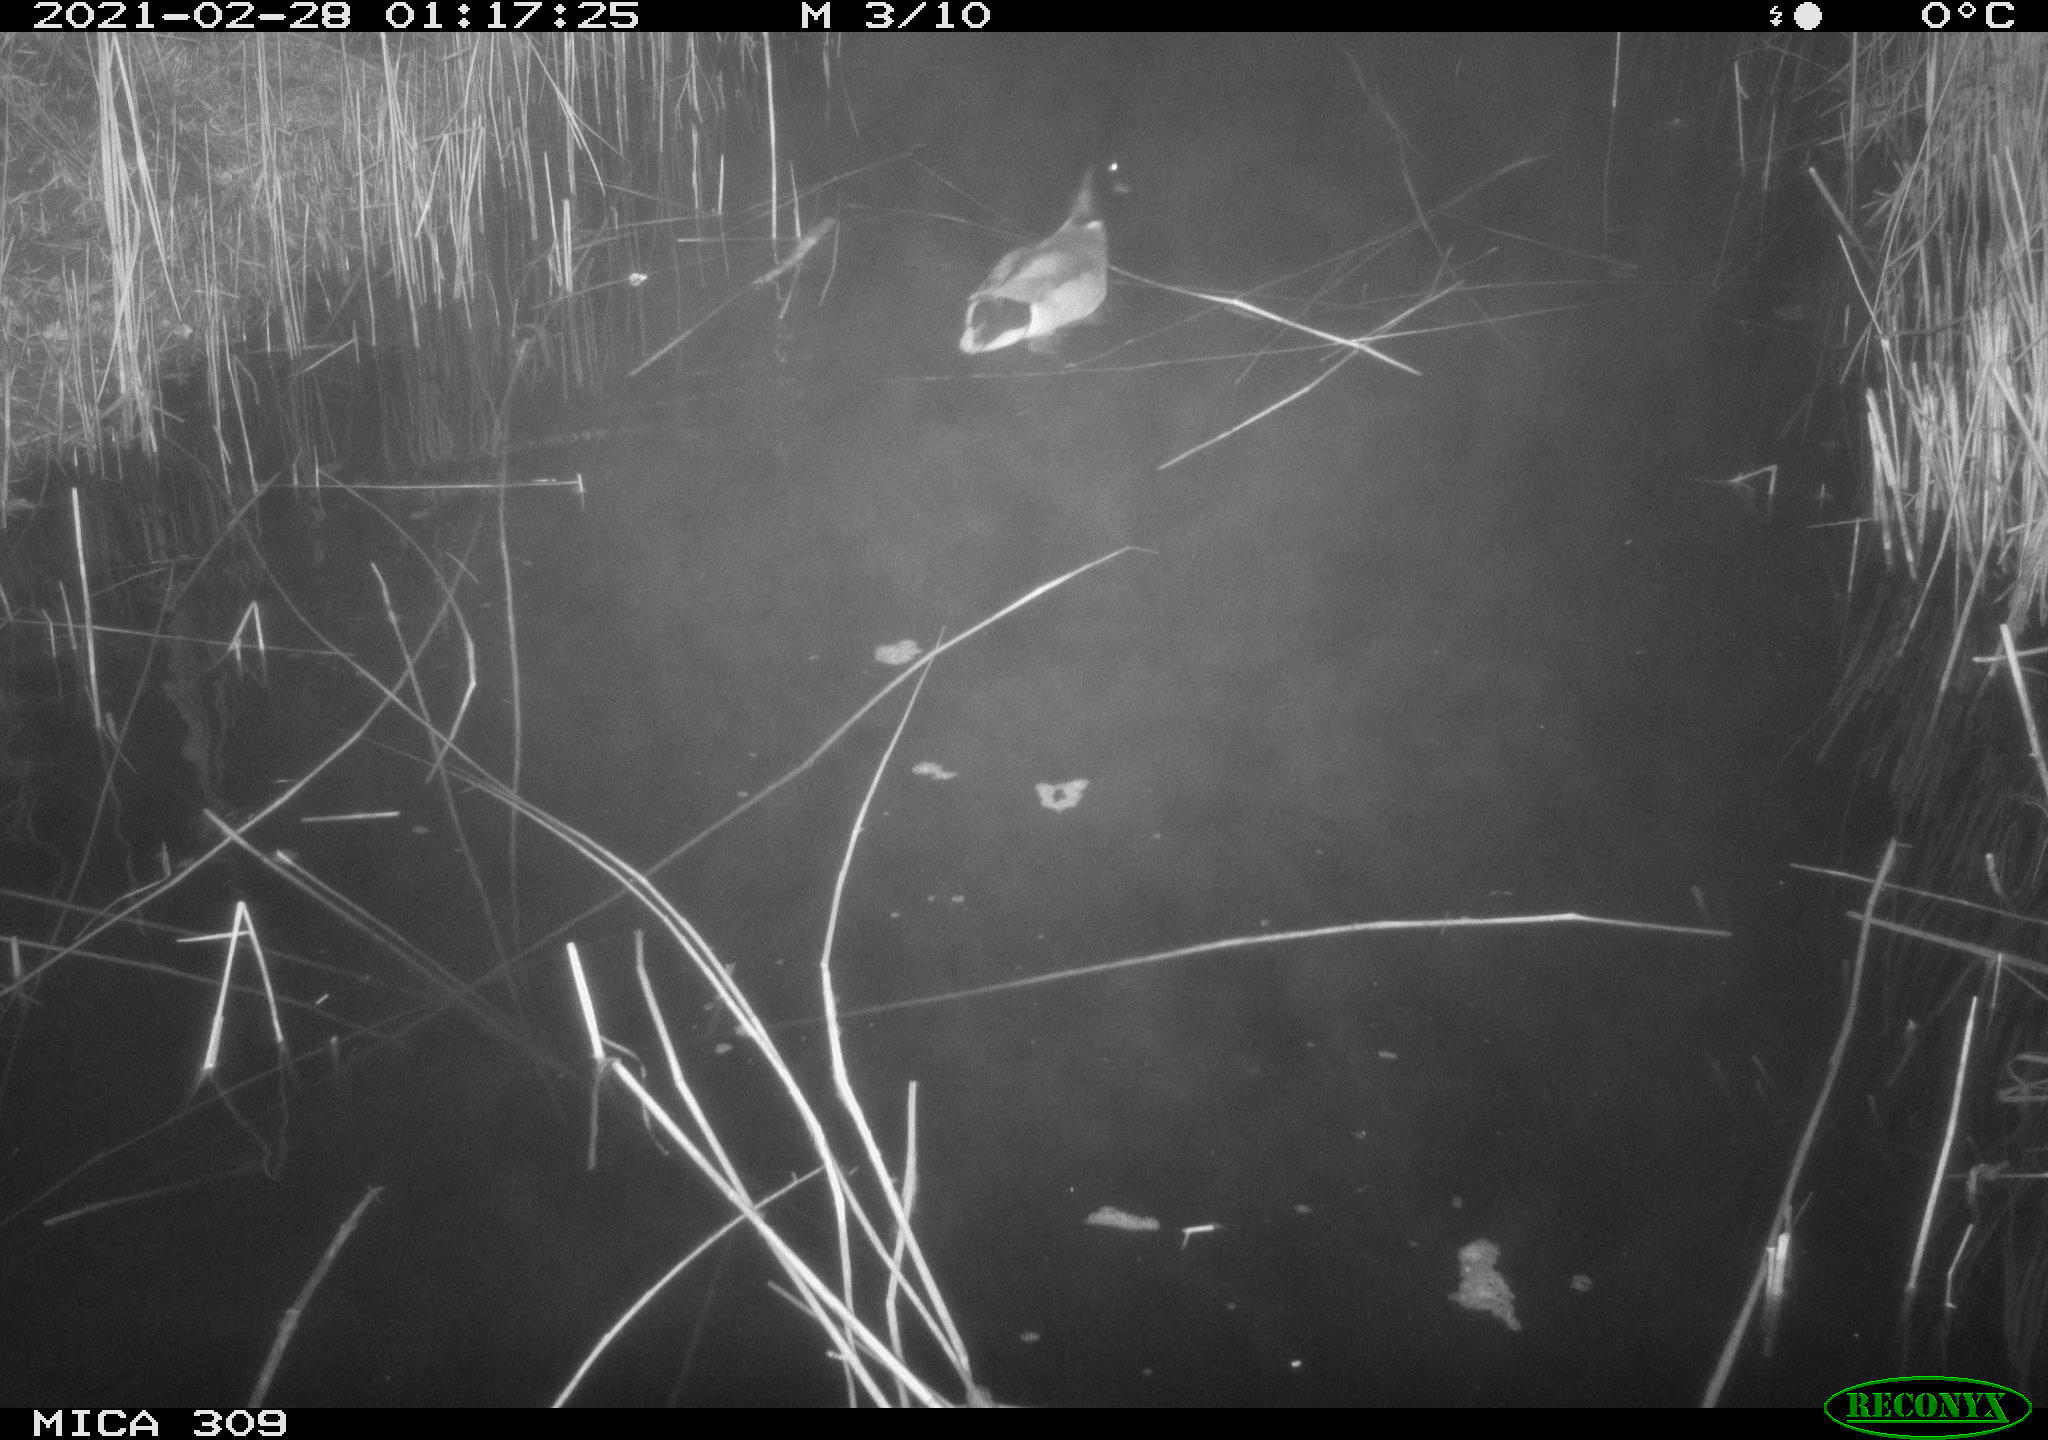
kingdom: Animalia
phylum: Chordata
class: Aves
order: Anseriformes
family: Anatidae
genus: Anas
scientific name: Anas platyrhynchos
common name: Mallard
